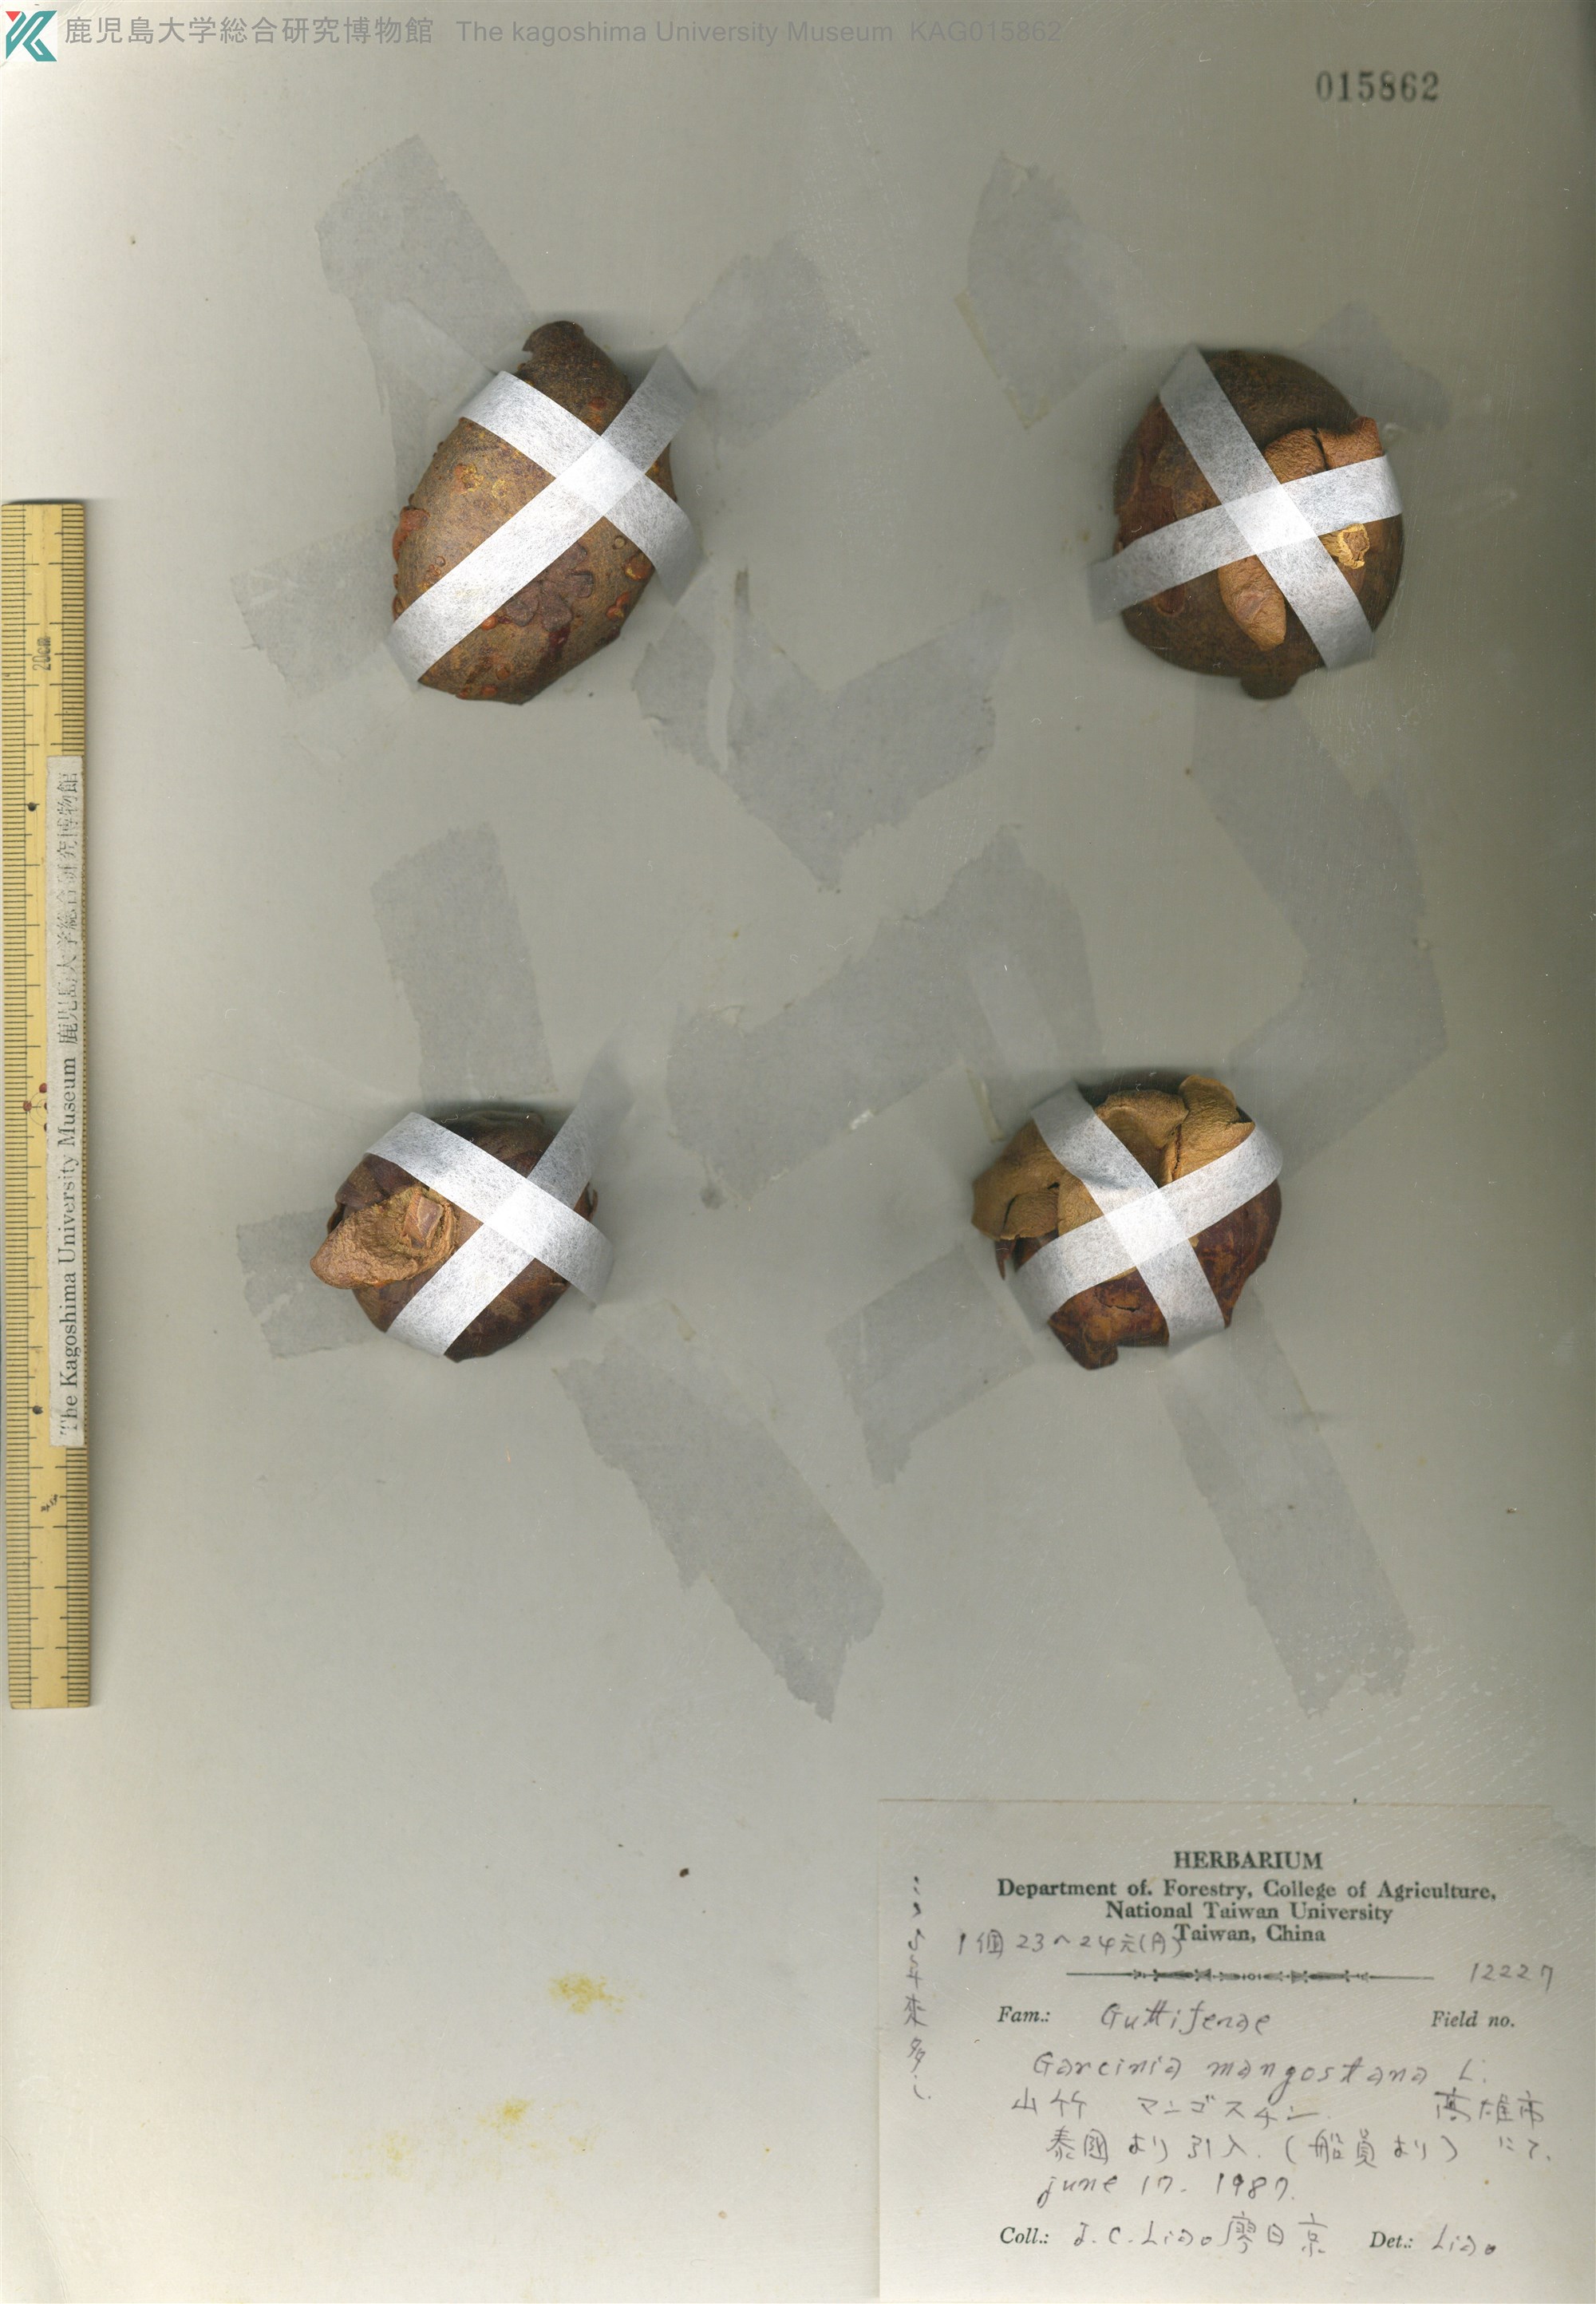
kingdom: Plantae
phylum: Tracheophyta
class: Magnoliopsida
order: Malpighiales
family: Clusiaceae
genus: Garcinia
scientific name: Garcinia mangostana
